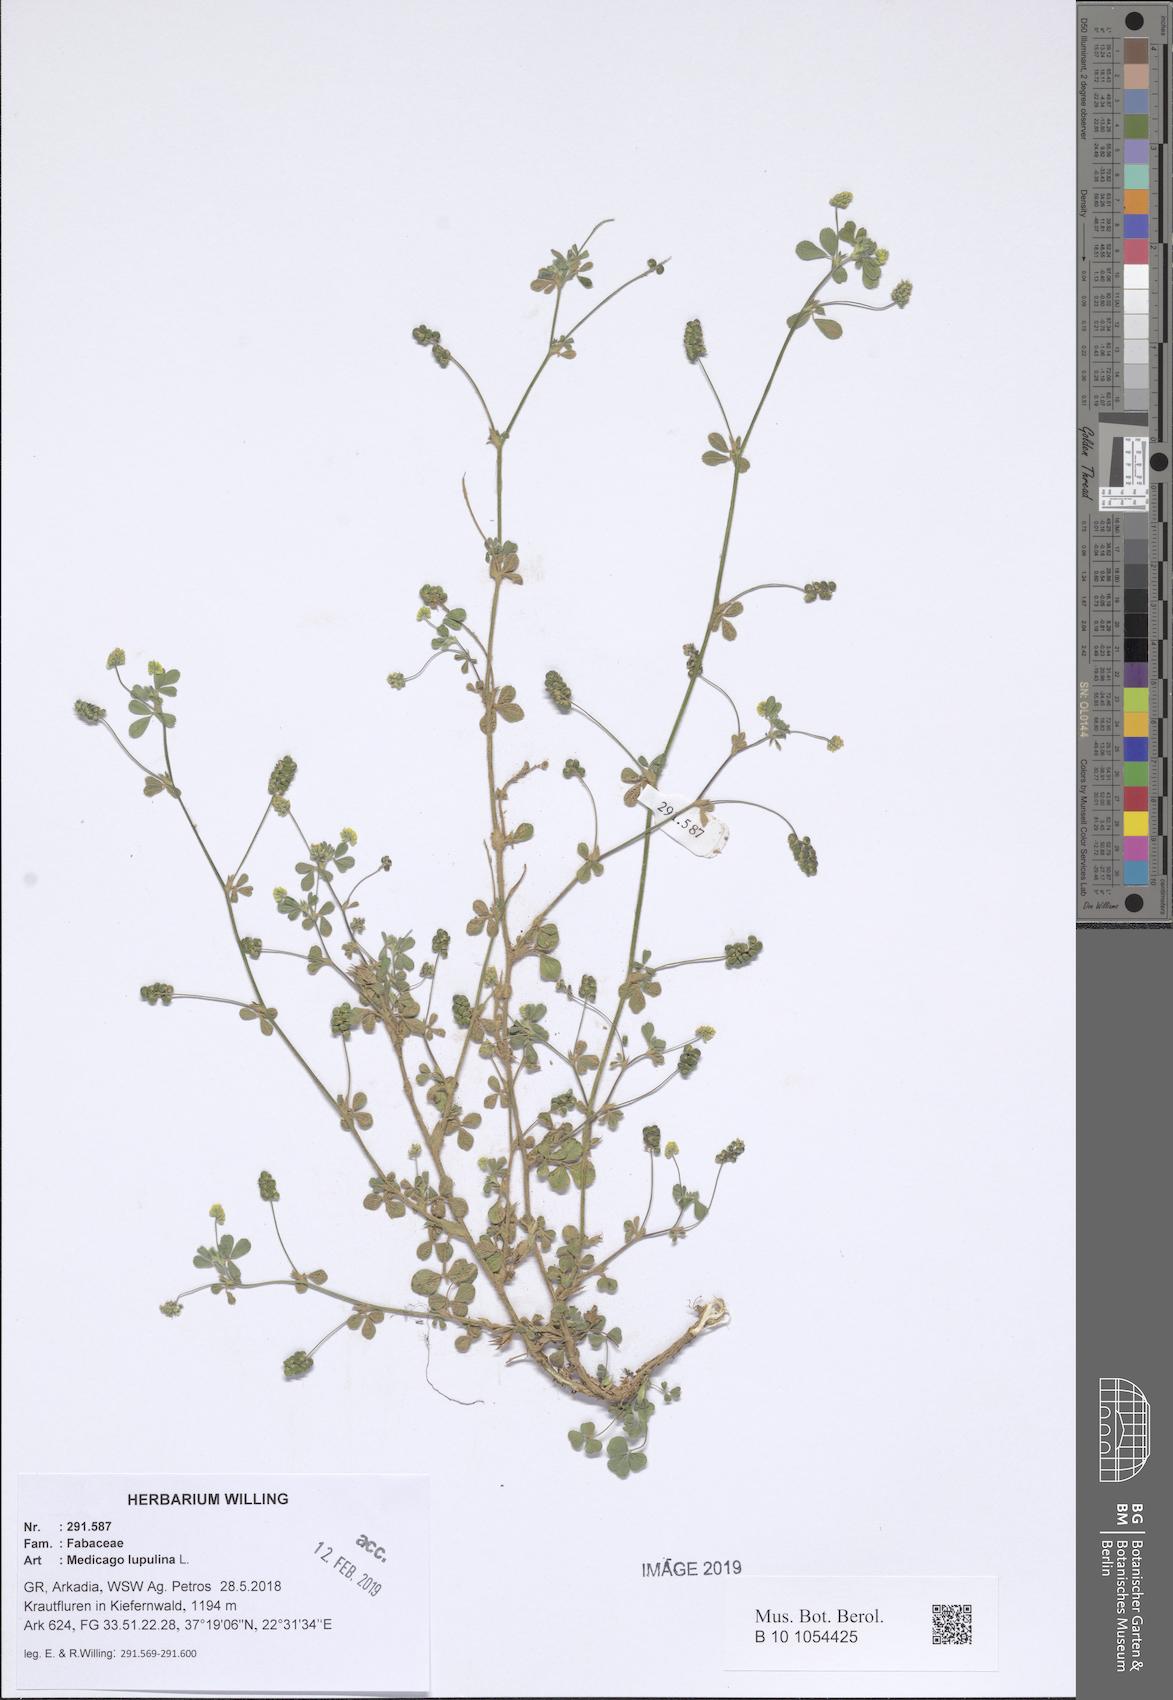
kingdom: Plantae
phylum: Tracheophyta
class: Magnoliopsida
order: Fabales
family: Fabaceae
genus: Medicago
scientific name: Medicago lupulina
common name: Black medick
